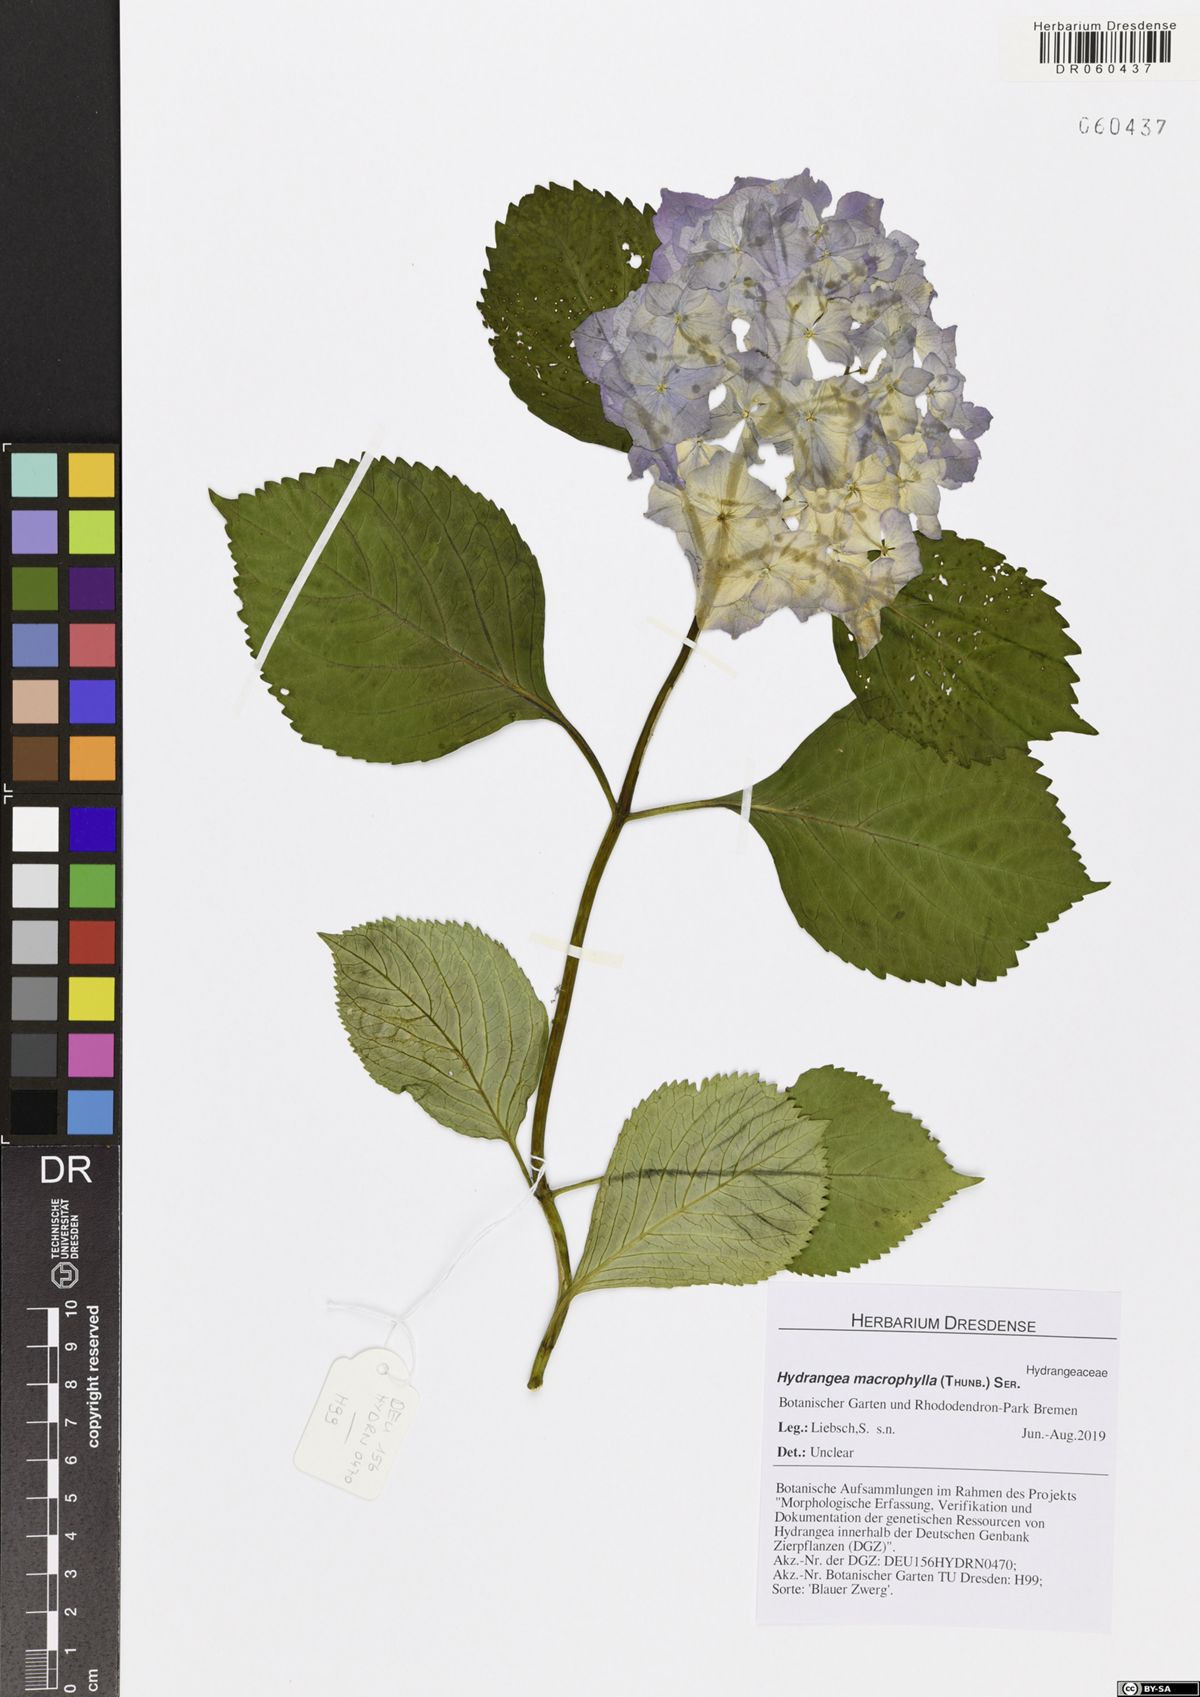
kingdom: Plantae
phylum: Tracheophyta
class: Magnoliopsida
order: Cornales
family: Hydrangeaceae
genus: Hydrangea
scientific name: Hydrangea macrophylla
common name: Hydrangea
